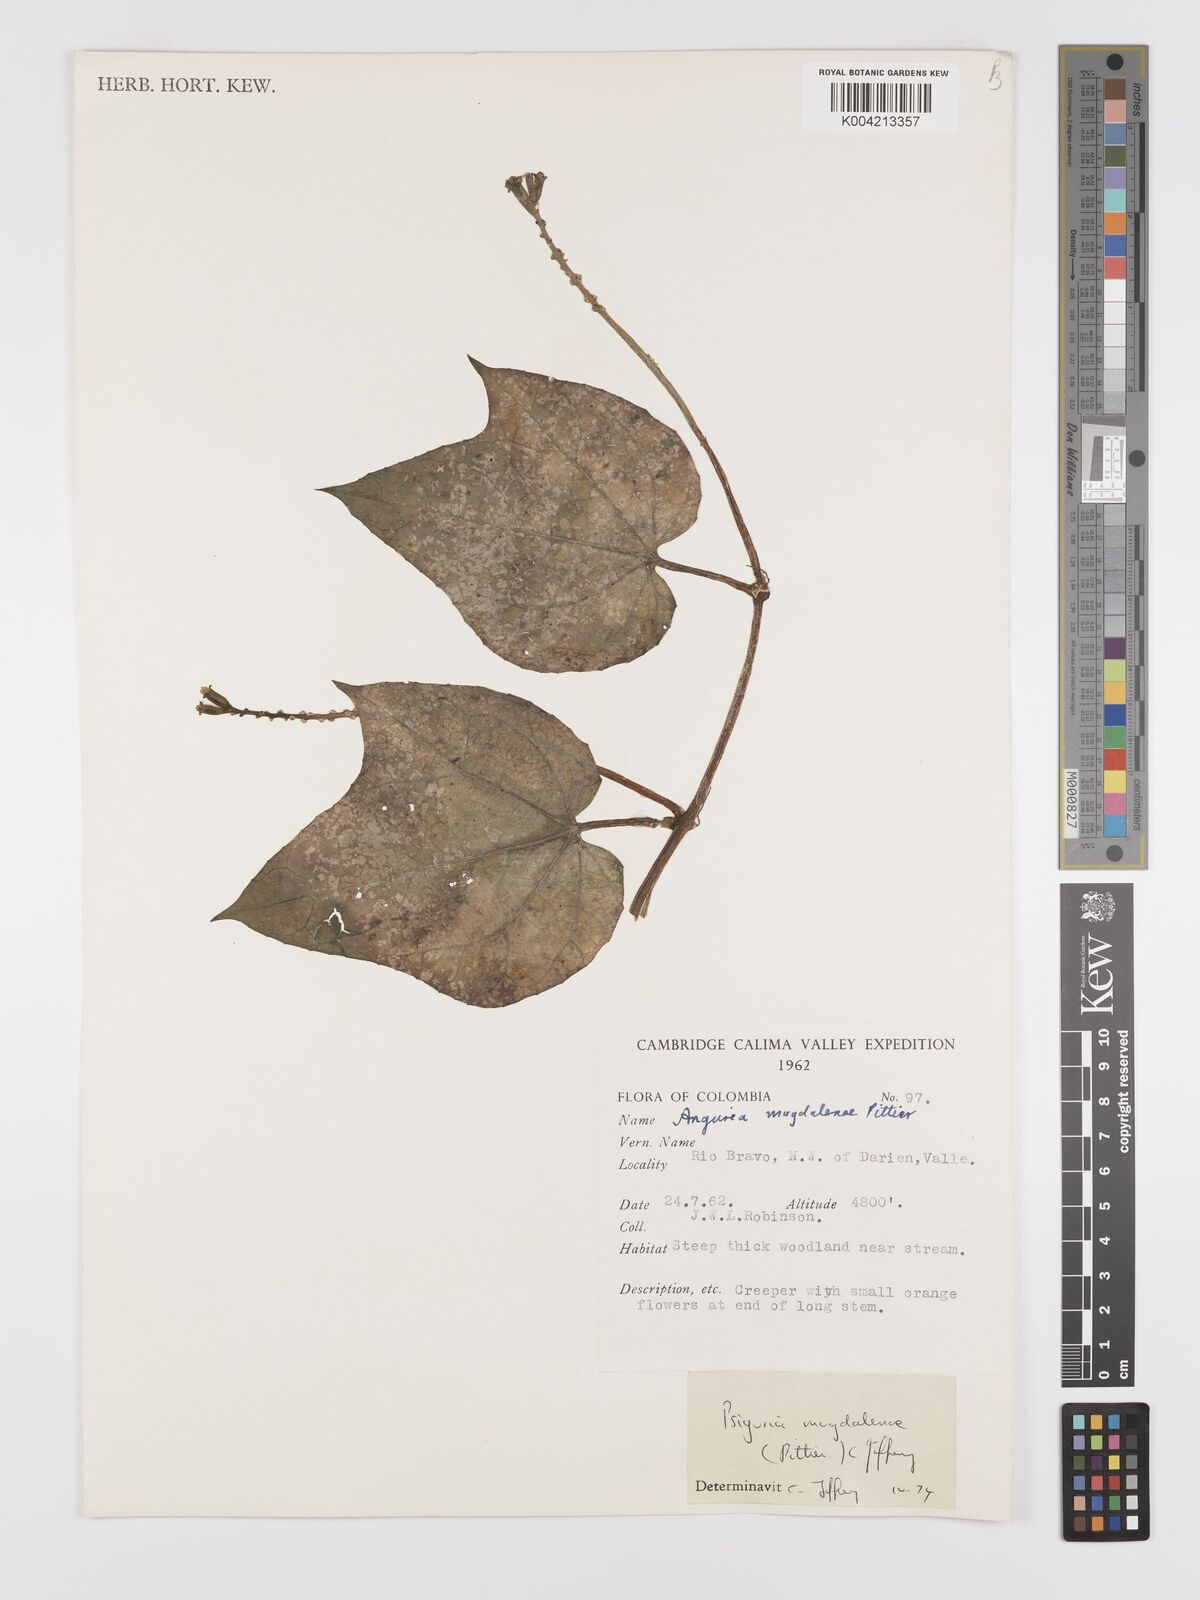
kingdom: Plantae
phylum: Tracheophyta
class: Magnoliopsida
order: Cucurbitales
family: Cucurbitaceae
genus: Psiguria
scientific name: Psiguria warscewiczii
